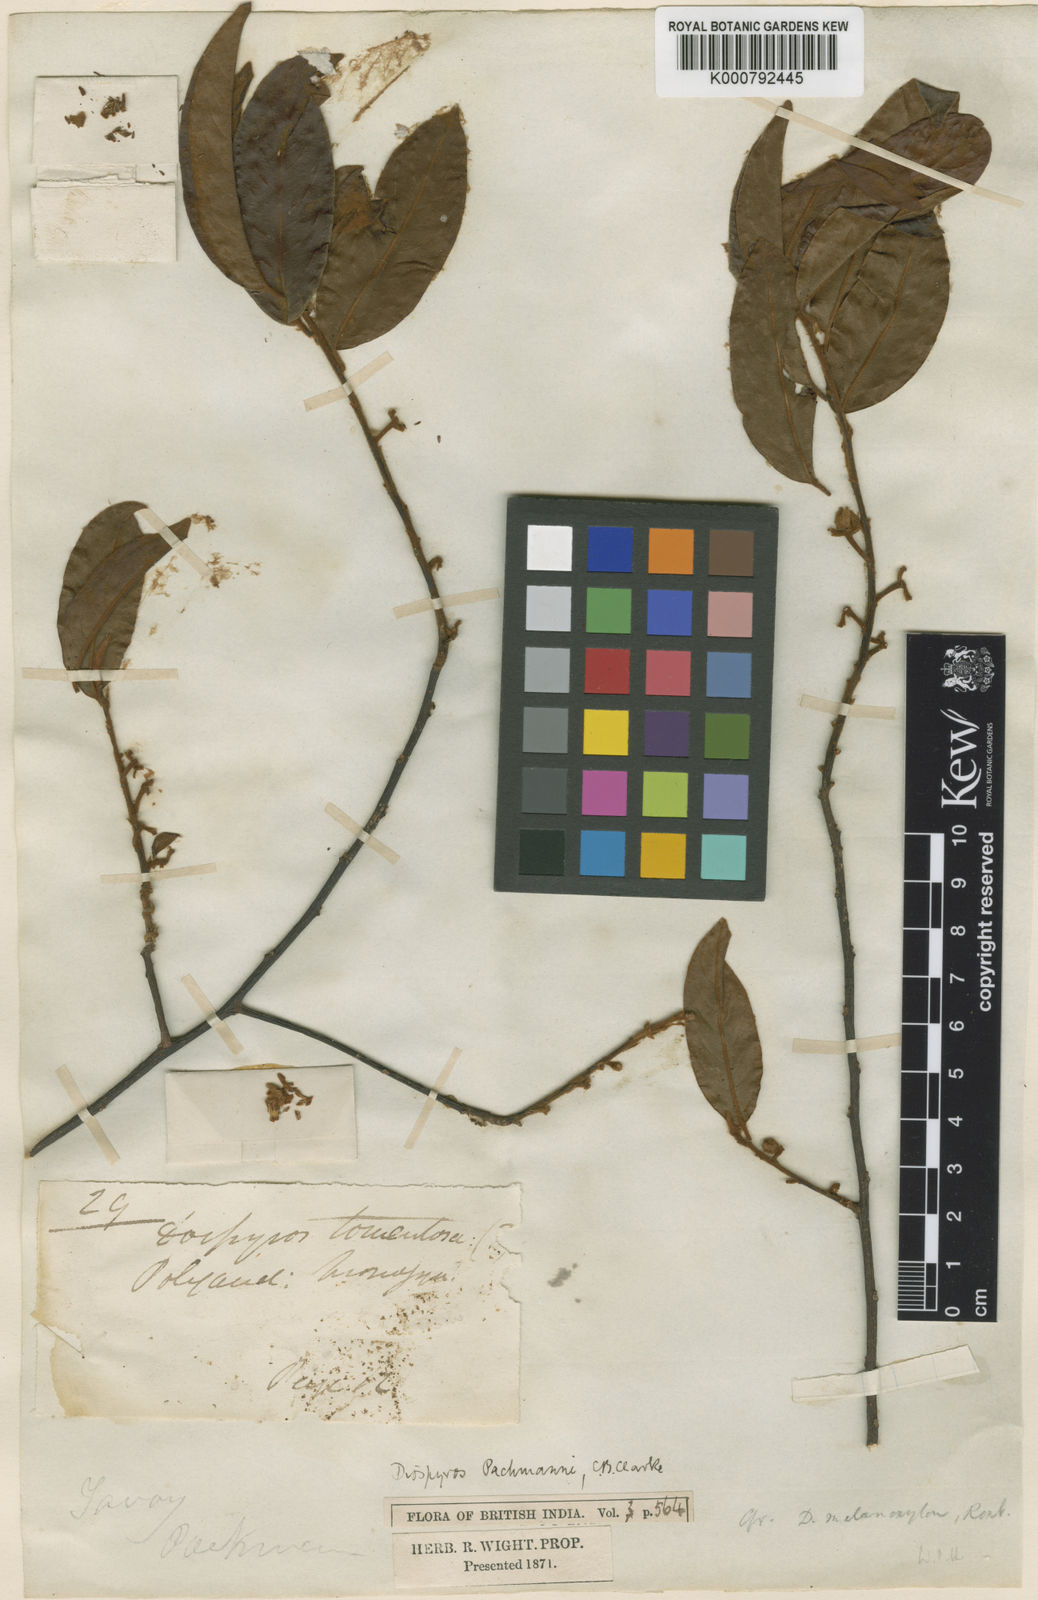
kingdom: Plantae
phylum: Tracheophyta
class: Magnoliopsida
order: Ericales
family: Ebenaceae
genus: Diospyros
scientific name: Diospyros decandra
